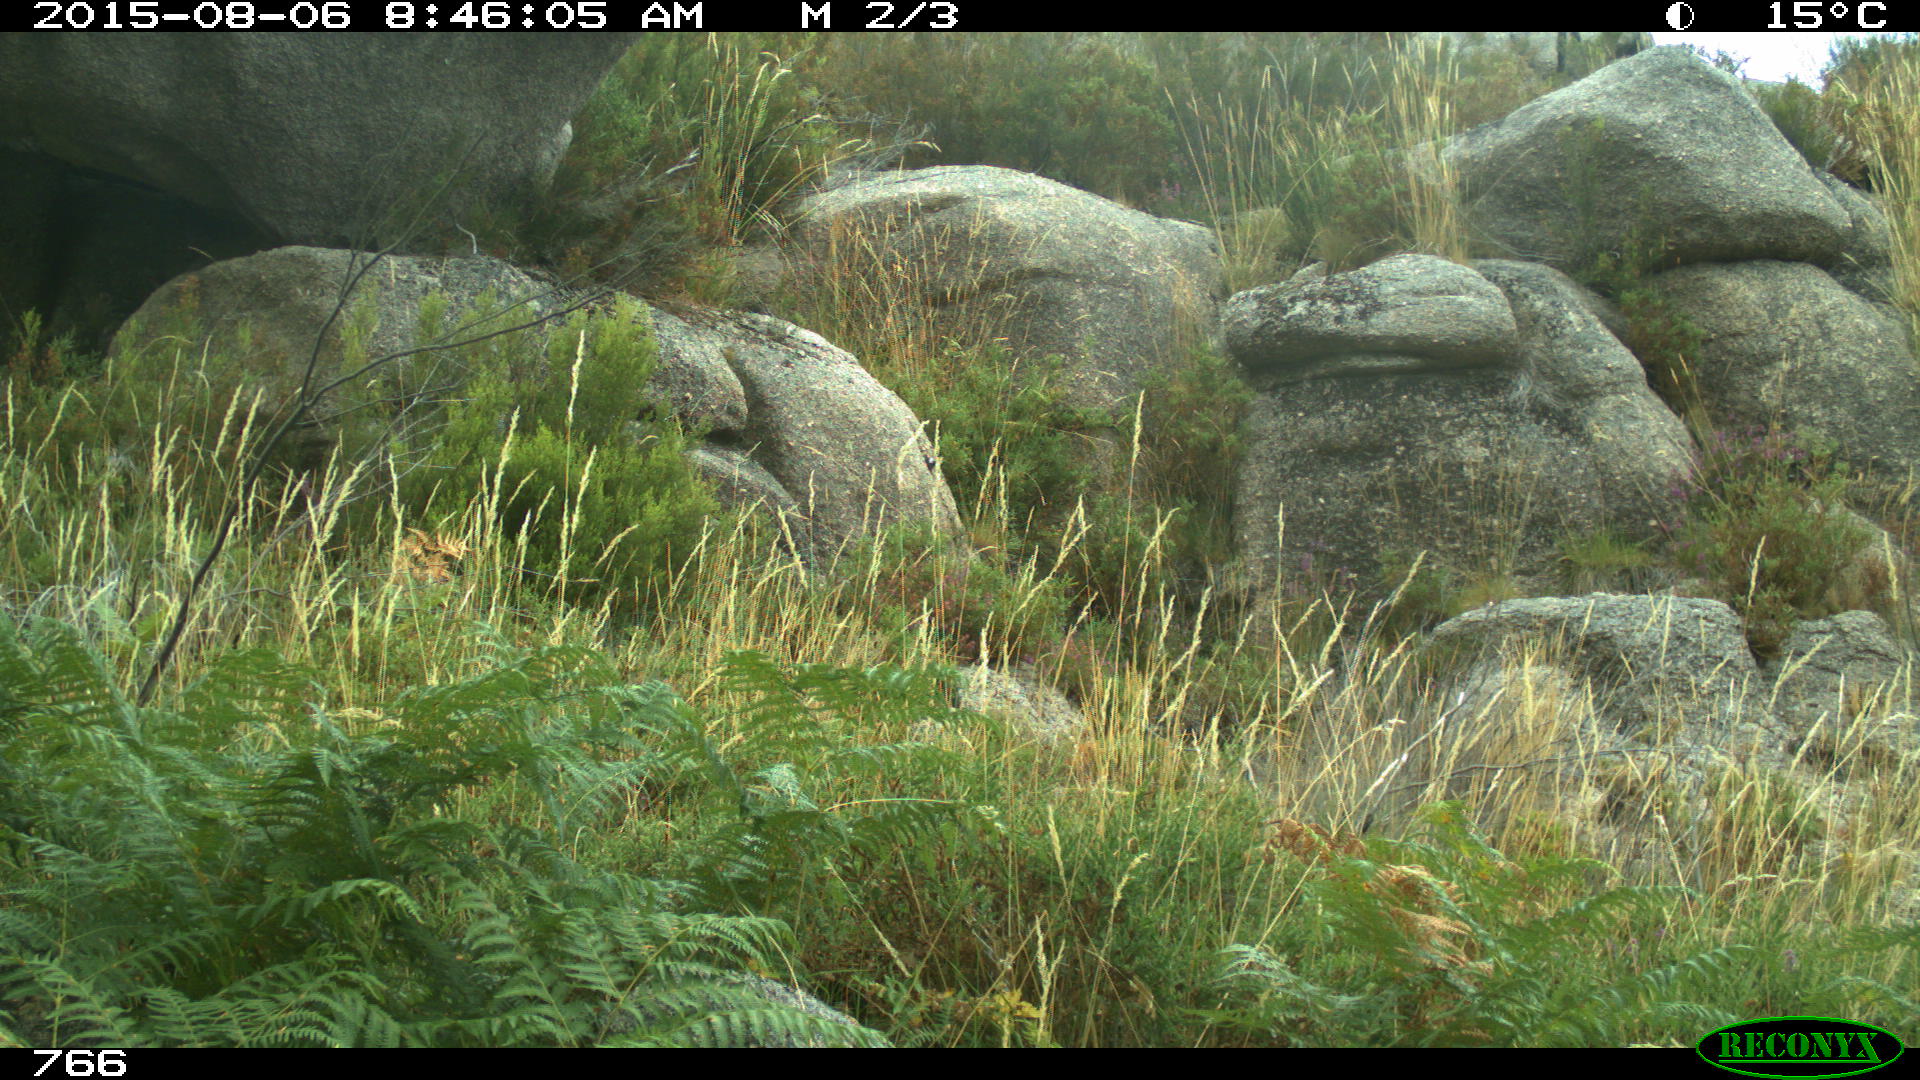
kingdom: Animalia
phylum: Chordata
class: Mammalia
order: Artiodactyla
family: Cervidae
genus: Capreolus
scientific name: Capreolus capreolus
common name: Western roe deer
